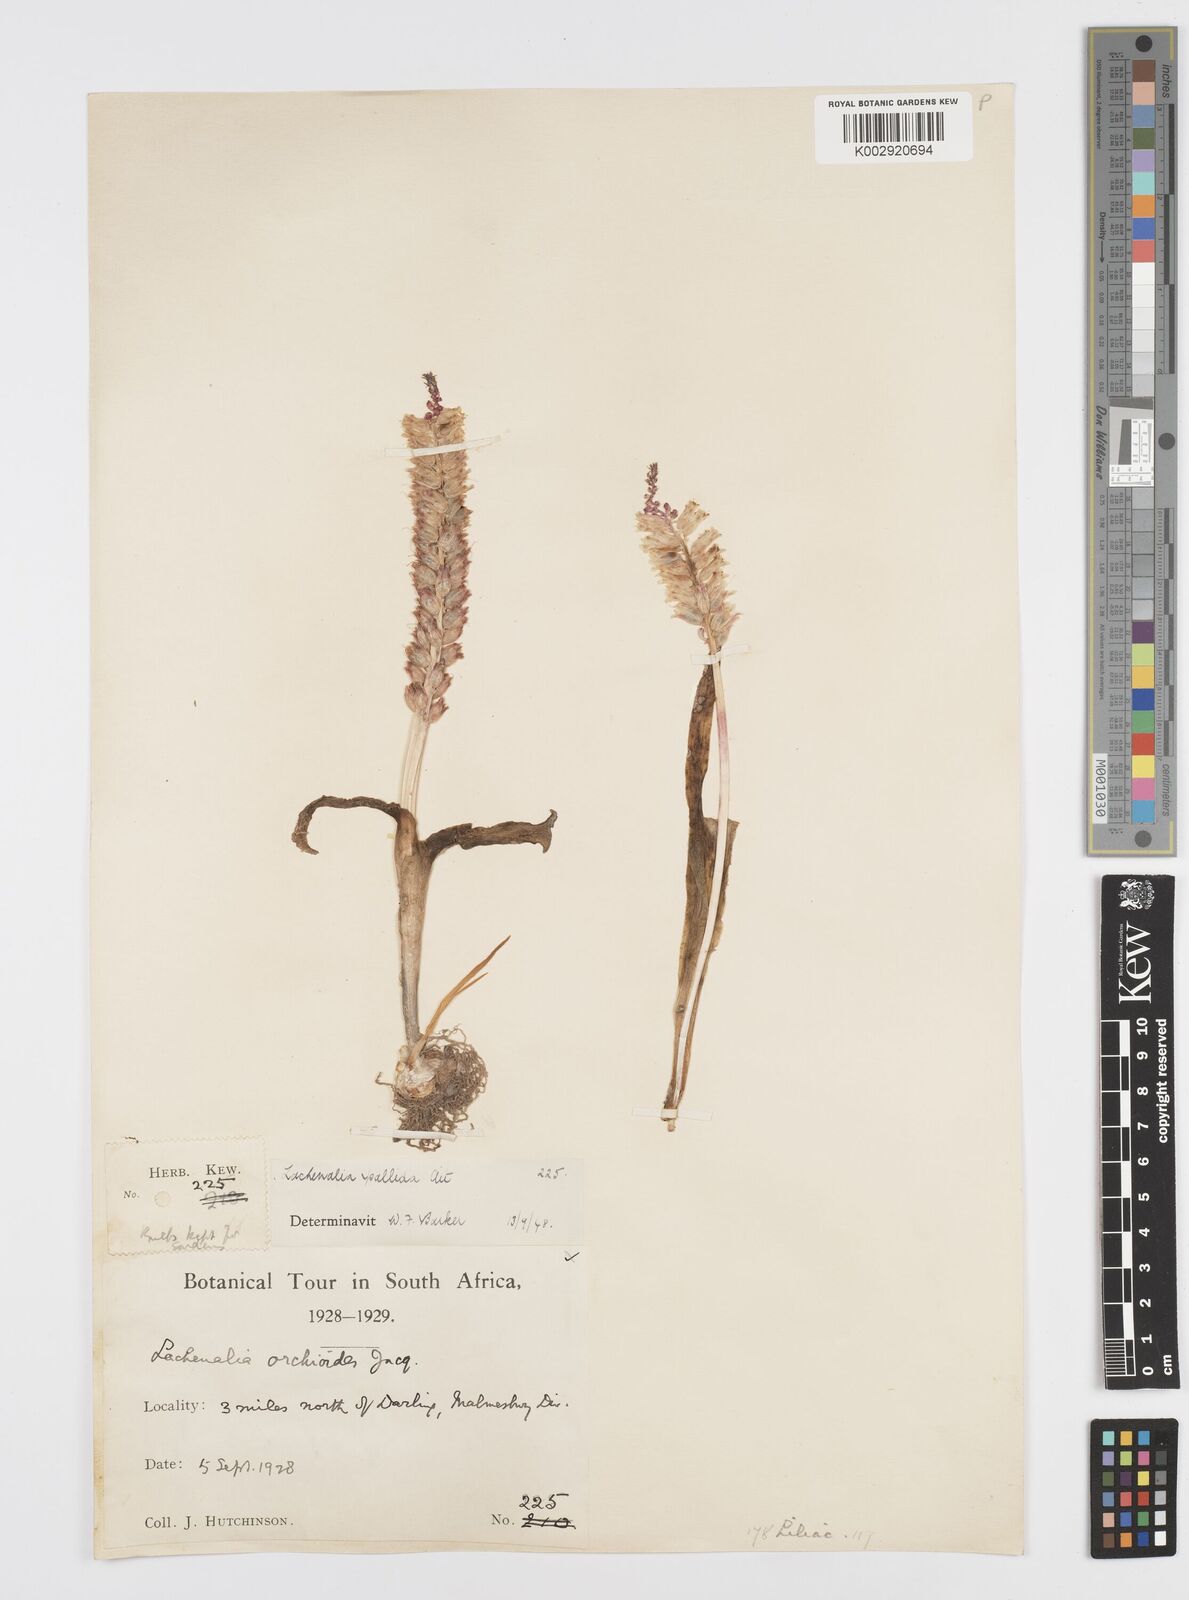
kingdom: Plantae
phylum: Tracheophyta
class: Liliopsida
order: Asparagales
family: Asparagaceae
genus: Lachenalia
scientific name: Lachenalia pallida
